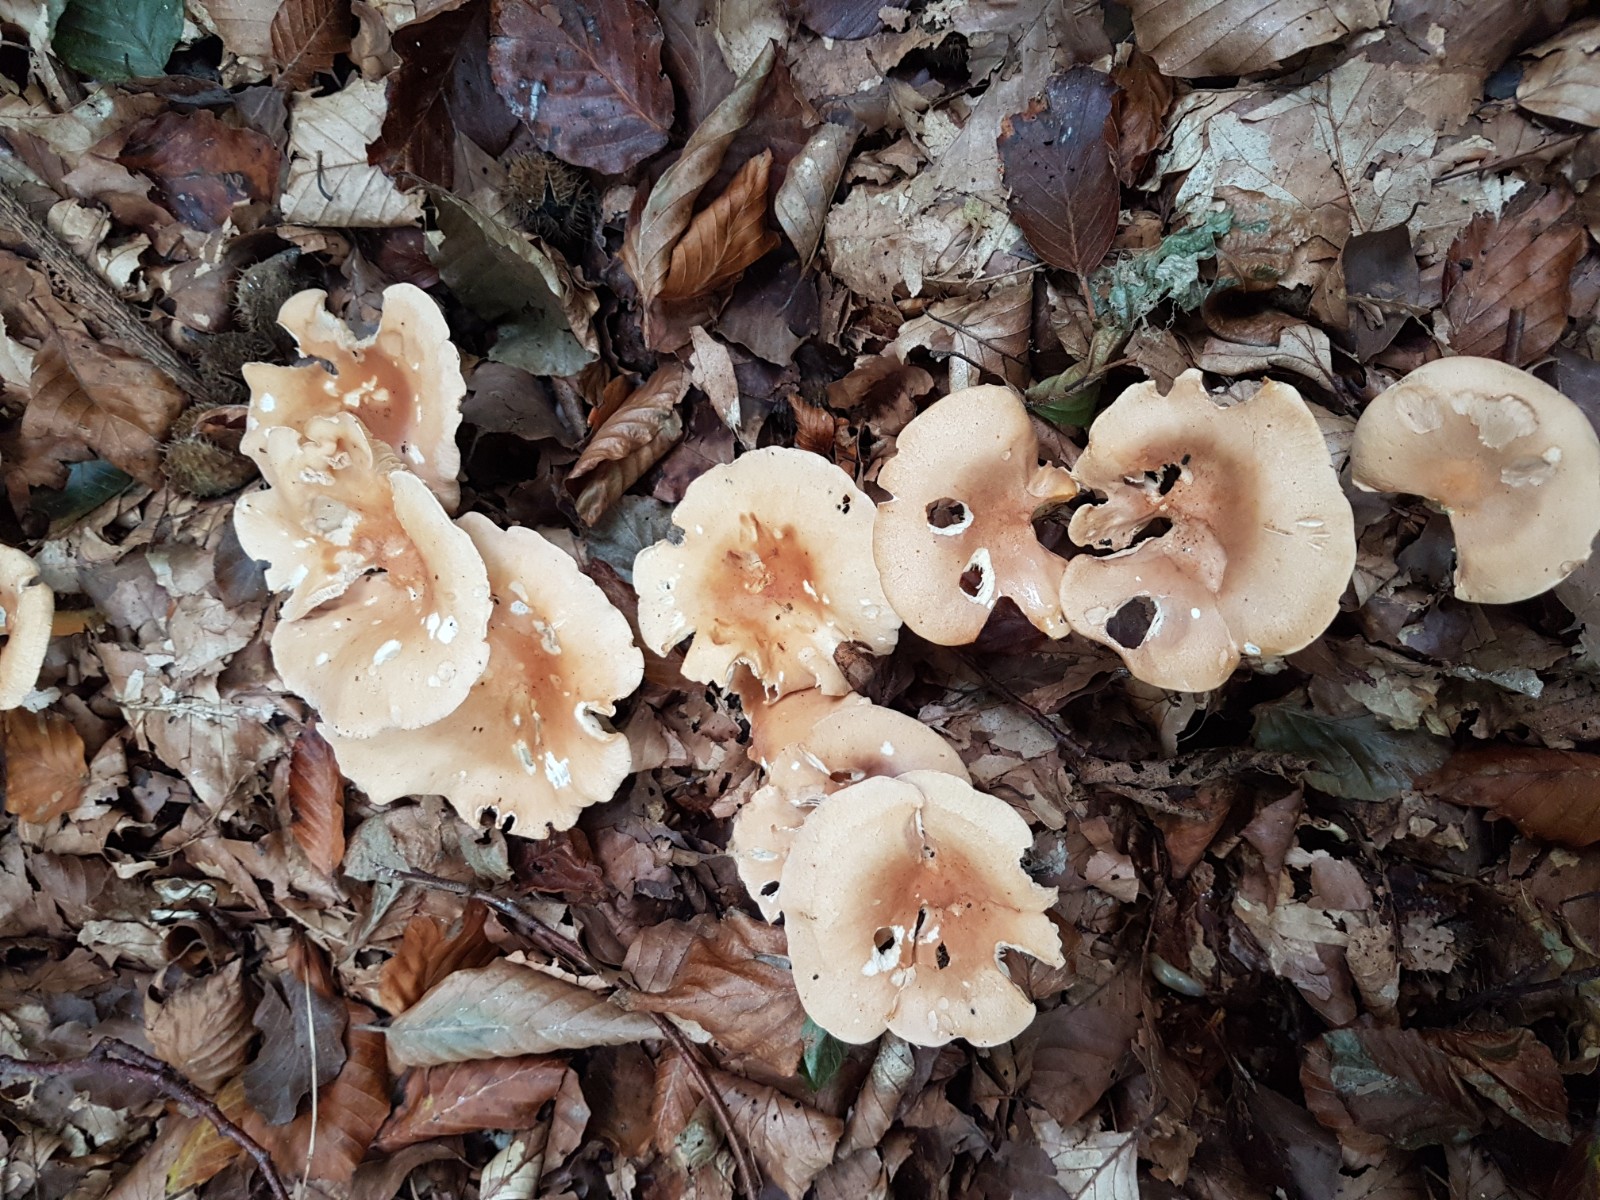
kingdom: Fungi
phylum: Basidiomycota
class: Agaricomycetes
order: Agaricales
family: Tricholomataceae
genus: Infundibulicybe
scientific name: Infundibulicybe gibba
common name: almindelig tragthat
